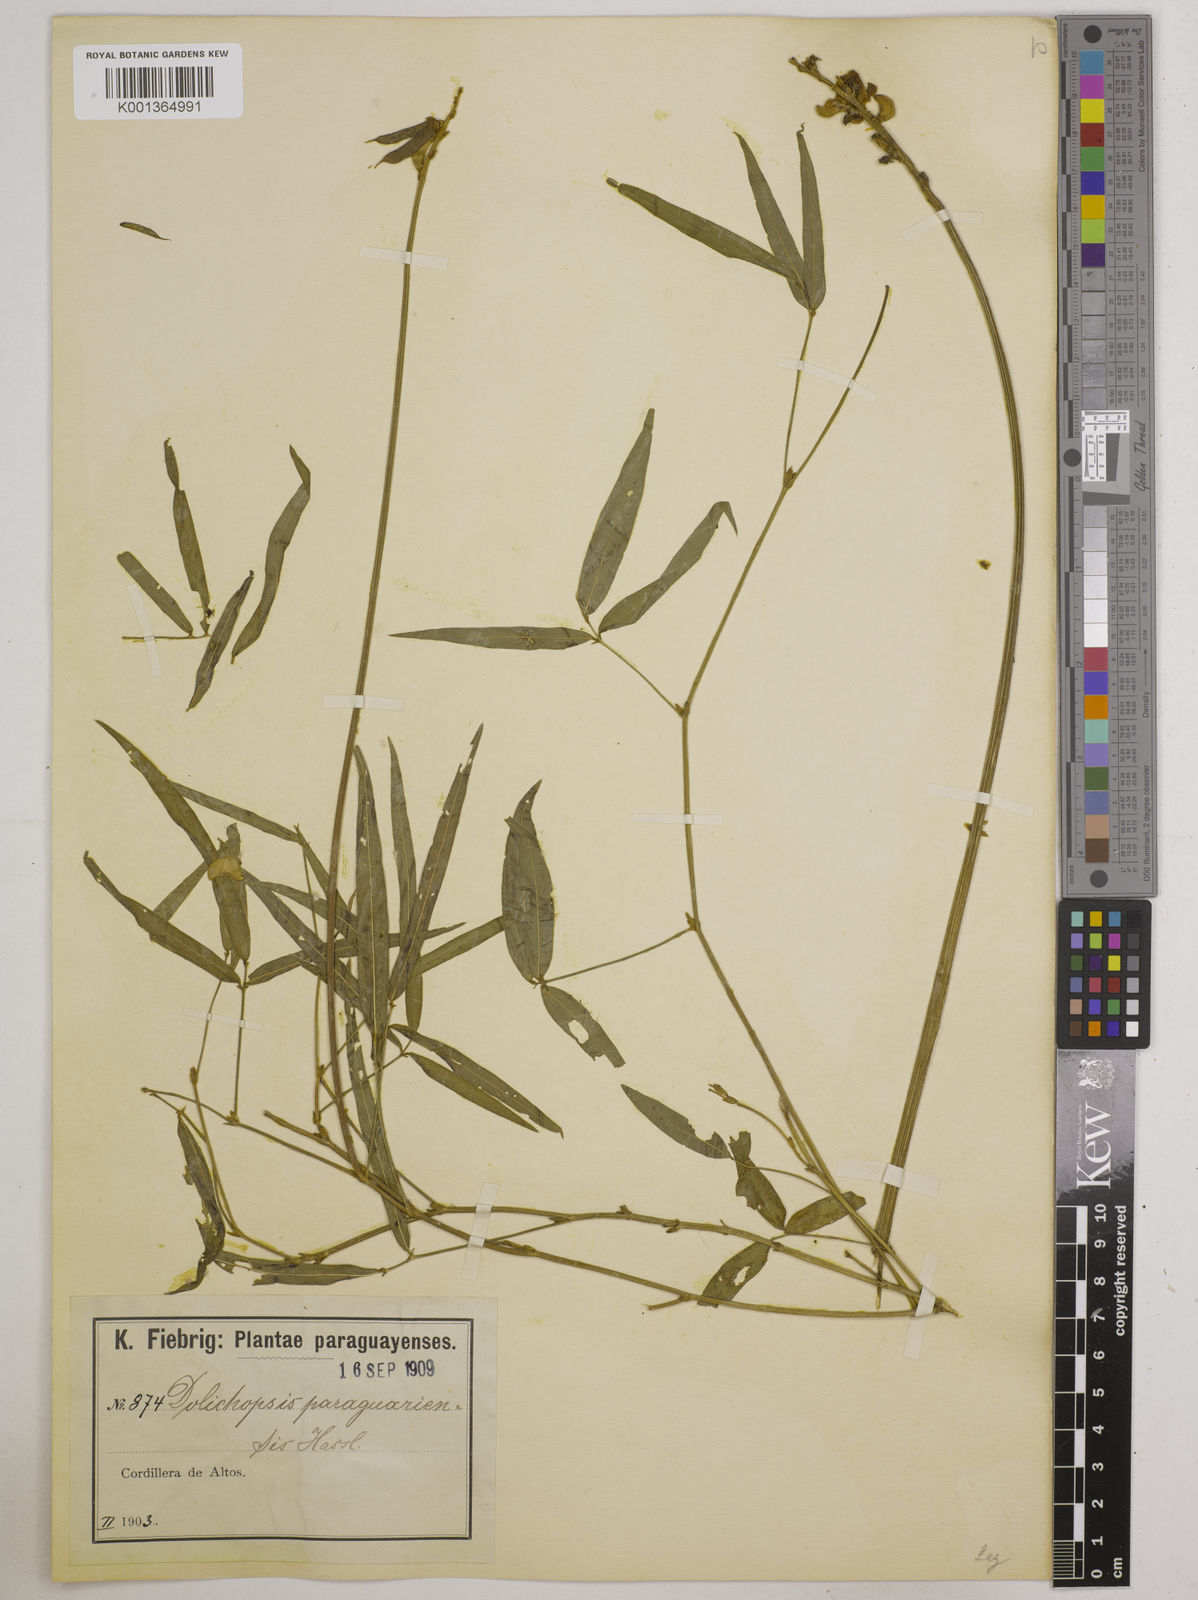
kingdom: Plantae
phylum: Tracheophyta
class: Magnoliopsida
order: Fabales
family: Fabaceae
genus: Dolichopsis
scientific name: Dolichopsis paraguariensis
